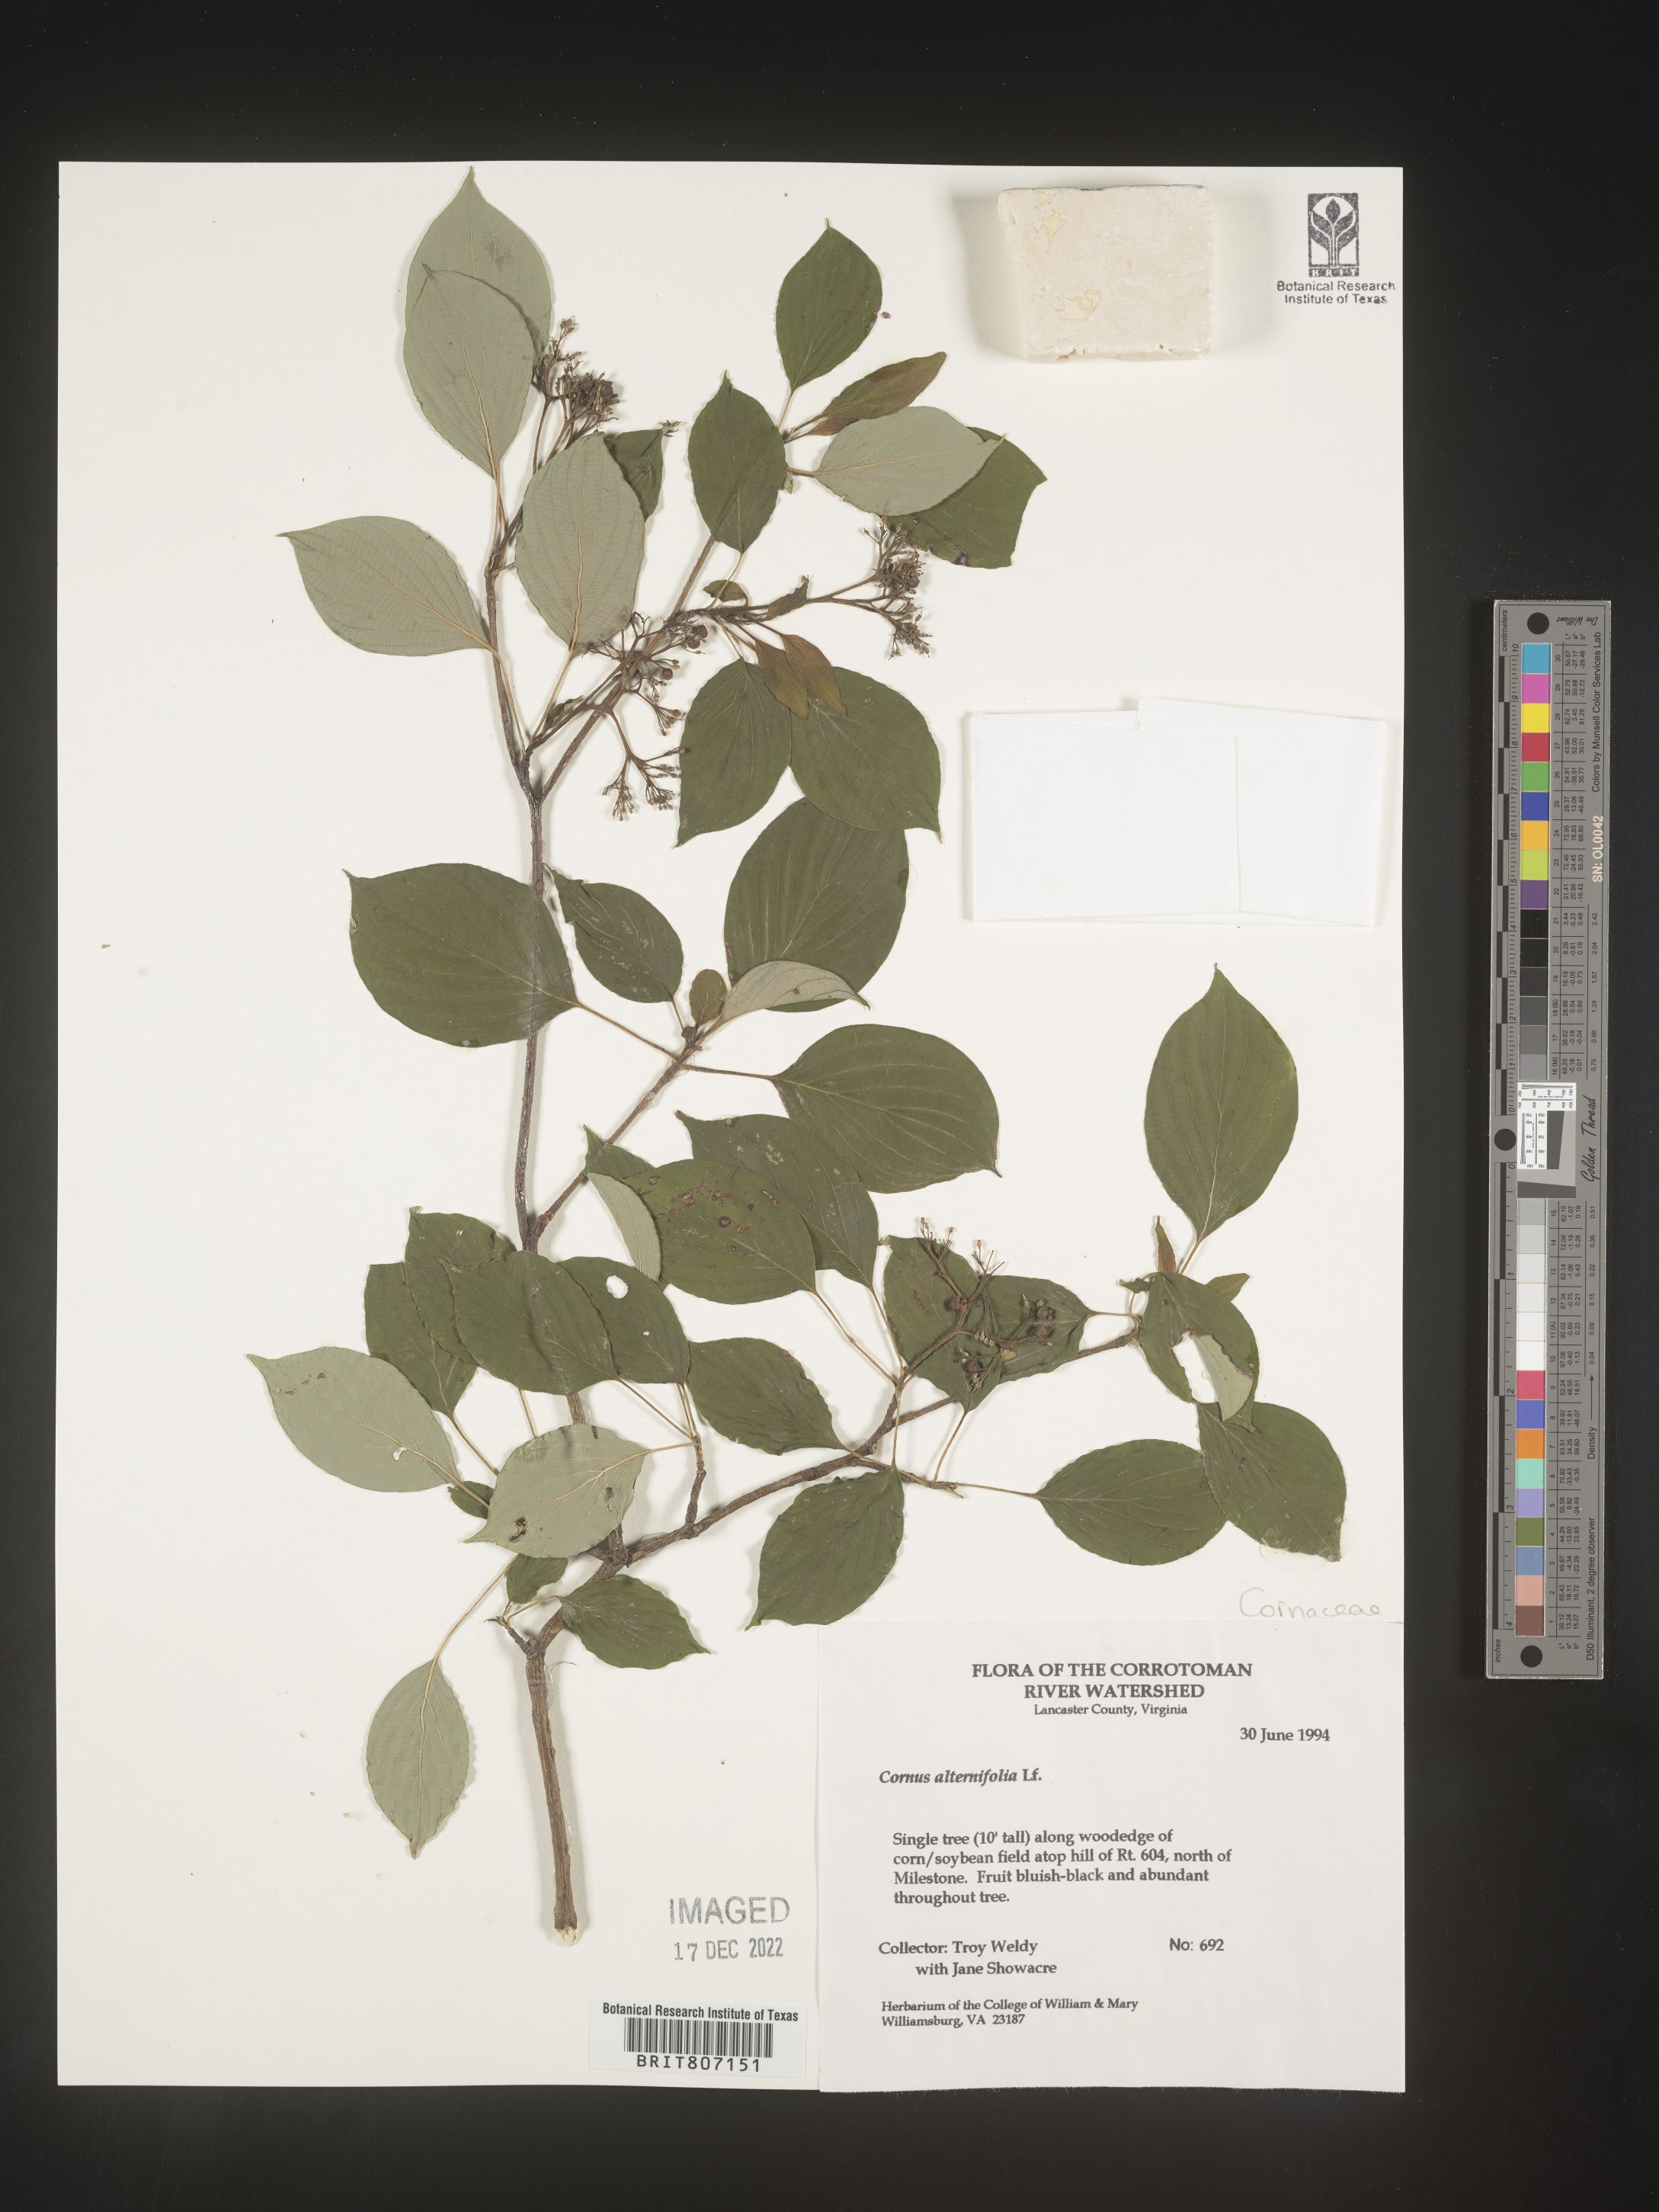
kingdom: Plantae
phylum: Tracheophyta
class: Magnoliopsida
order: Cornales
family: Cornaceae
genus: Cornus
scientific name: Cornus alternifolia
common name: Pagoda dogwood
